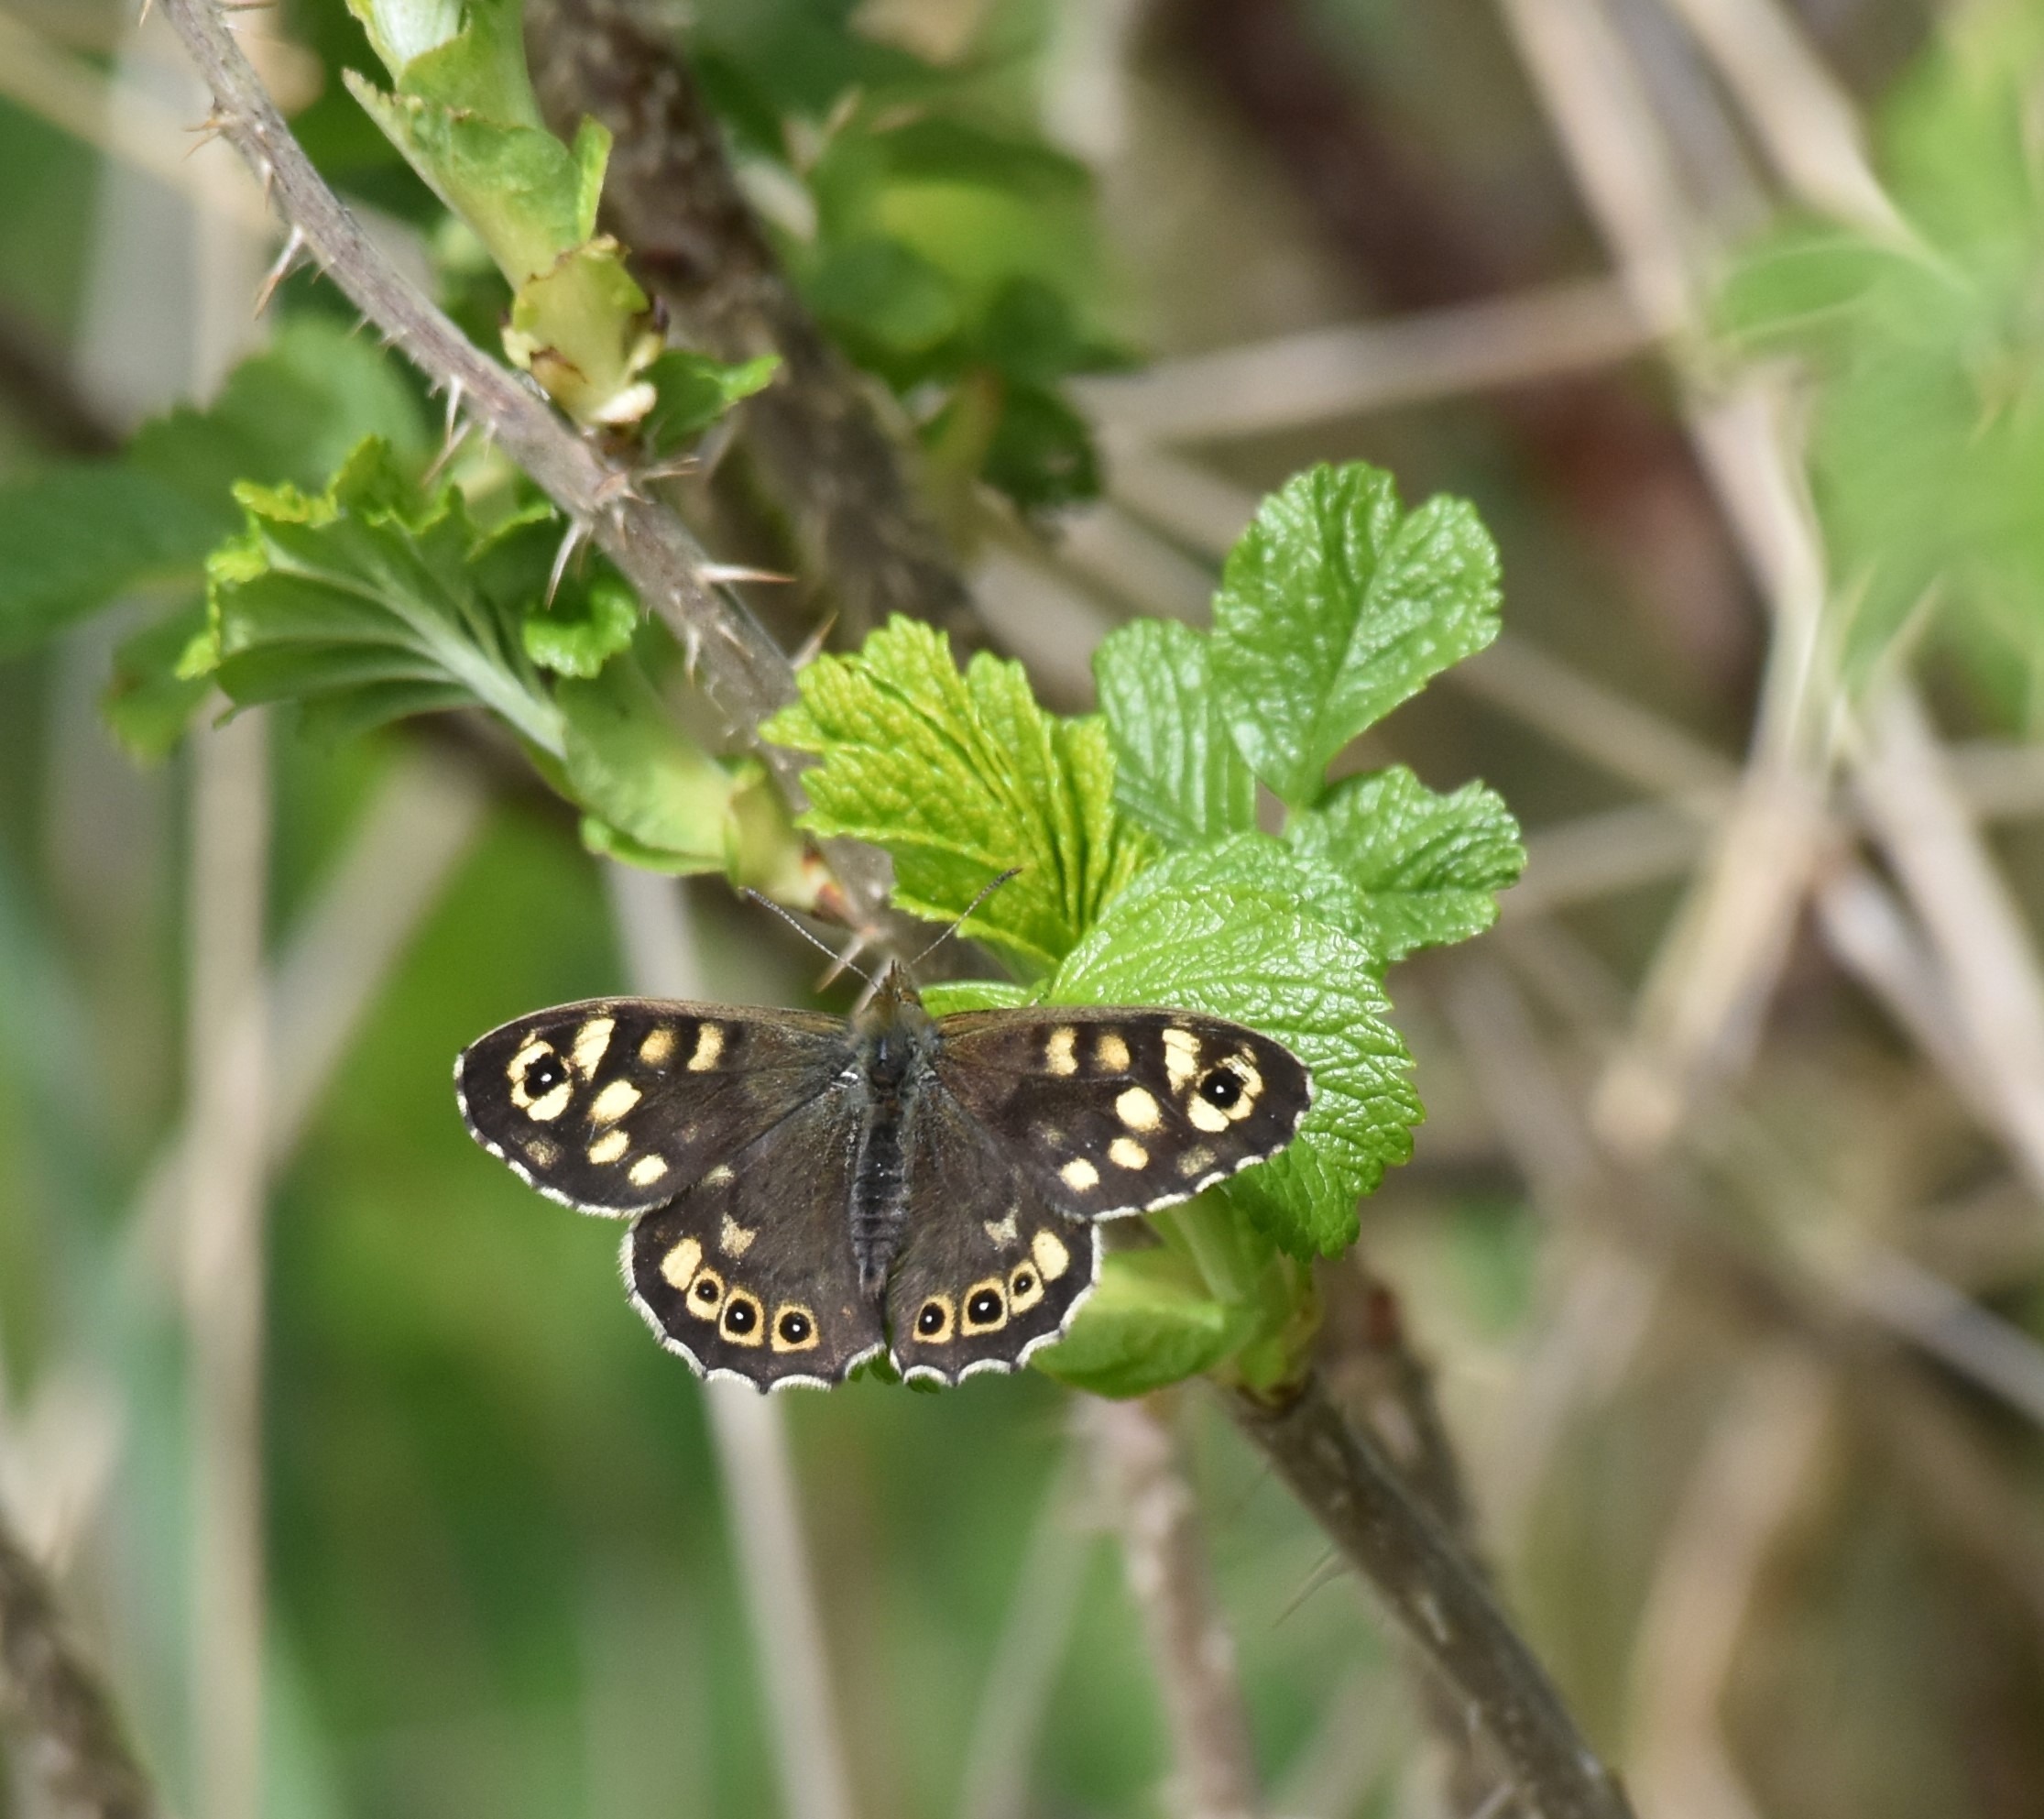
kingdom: Animalia
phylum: Arthropoda
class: Insecta
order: Lepidoptera
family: Nymphalidae
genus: Pararge
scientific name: Pararge aegeria
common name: Skovrandøje
